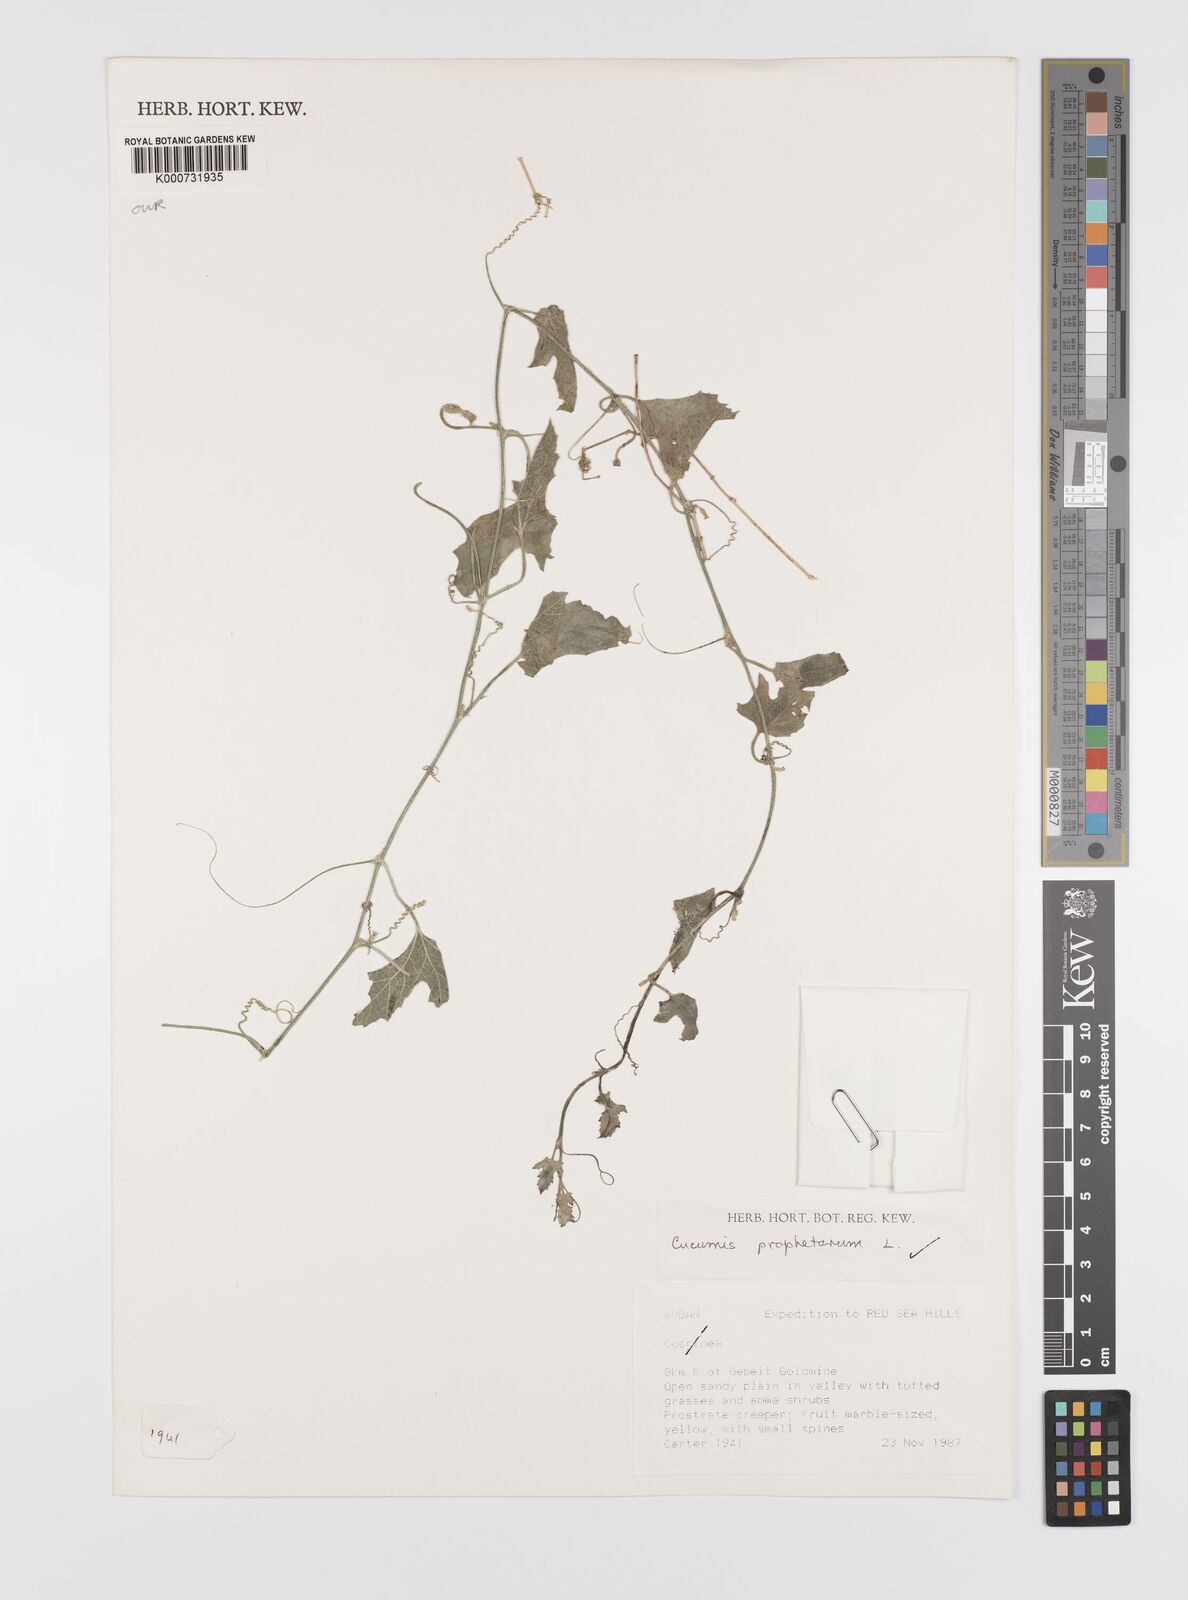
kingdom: Plantae
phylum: Tracheophyta
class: Magnoliopsida
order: Cucurbitales
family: Cucurbitaceae
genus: Cucumis
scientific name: Cucumis prophetarum
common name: Wild cucumber
